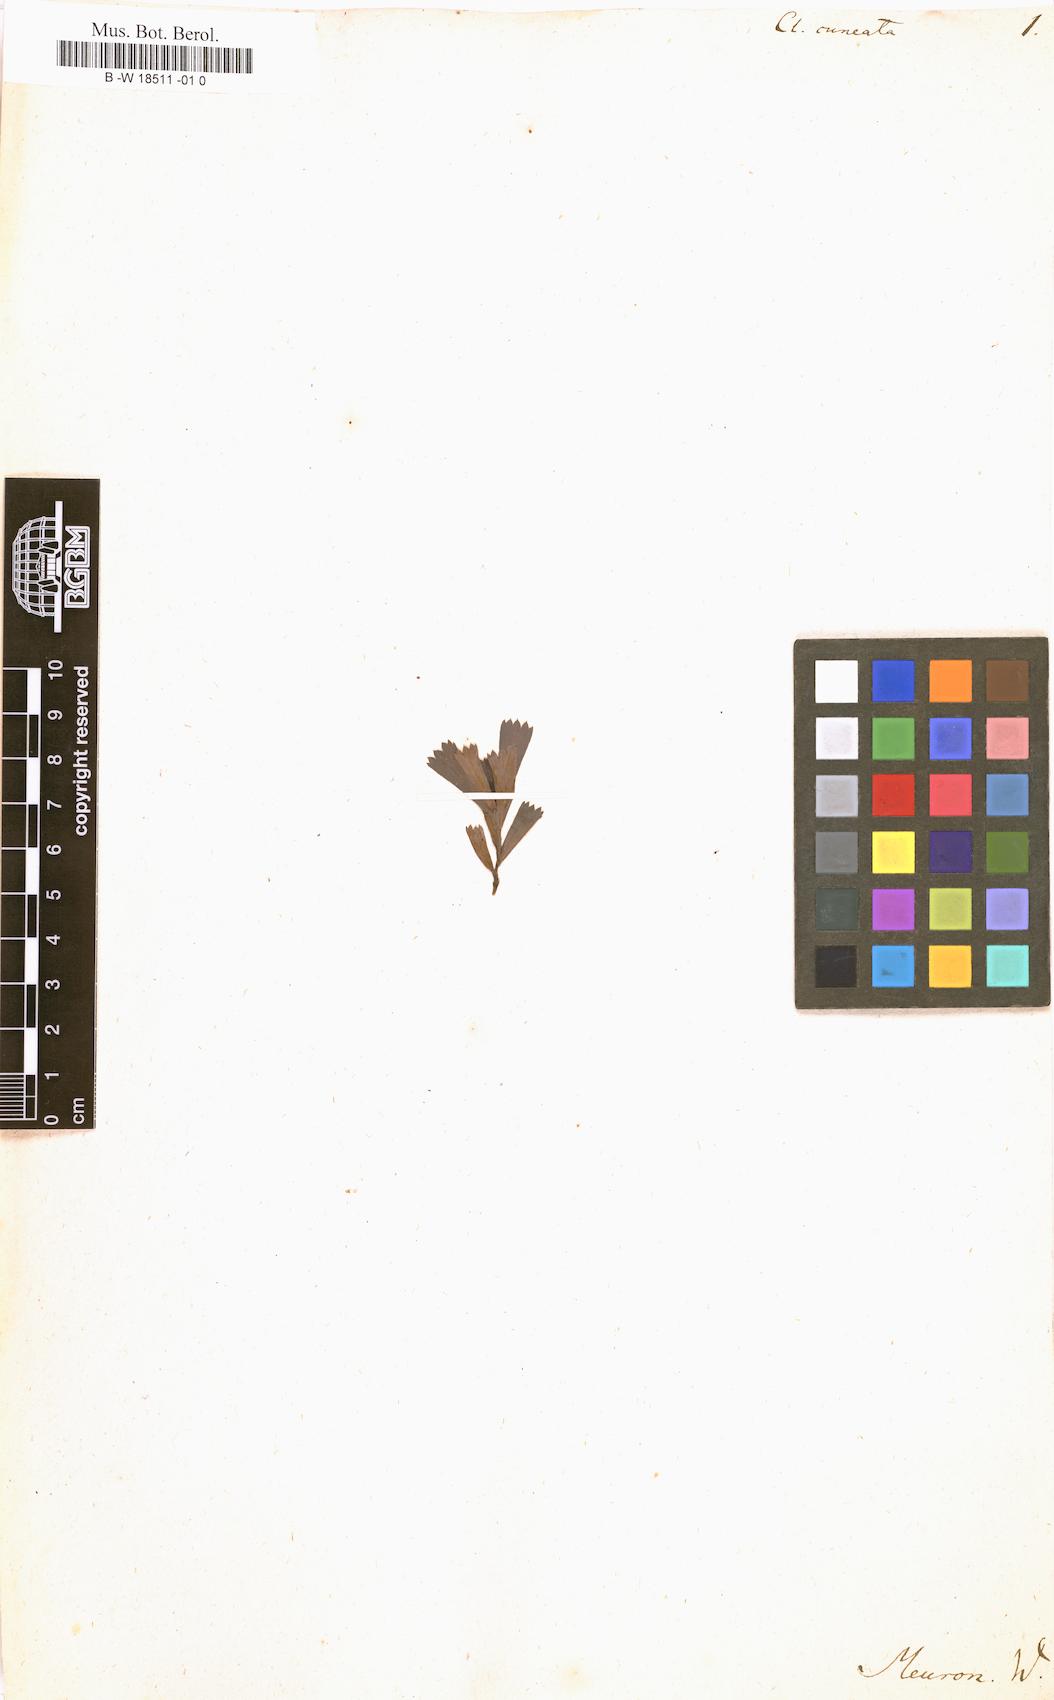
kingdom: Plantae
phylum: Tracheophyta
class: Magnoliopsida
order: Rosales
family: Rosaceae
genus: Cliffortia
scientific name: Cliffortia cuneata
